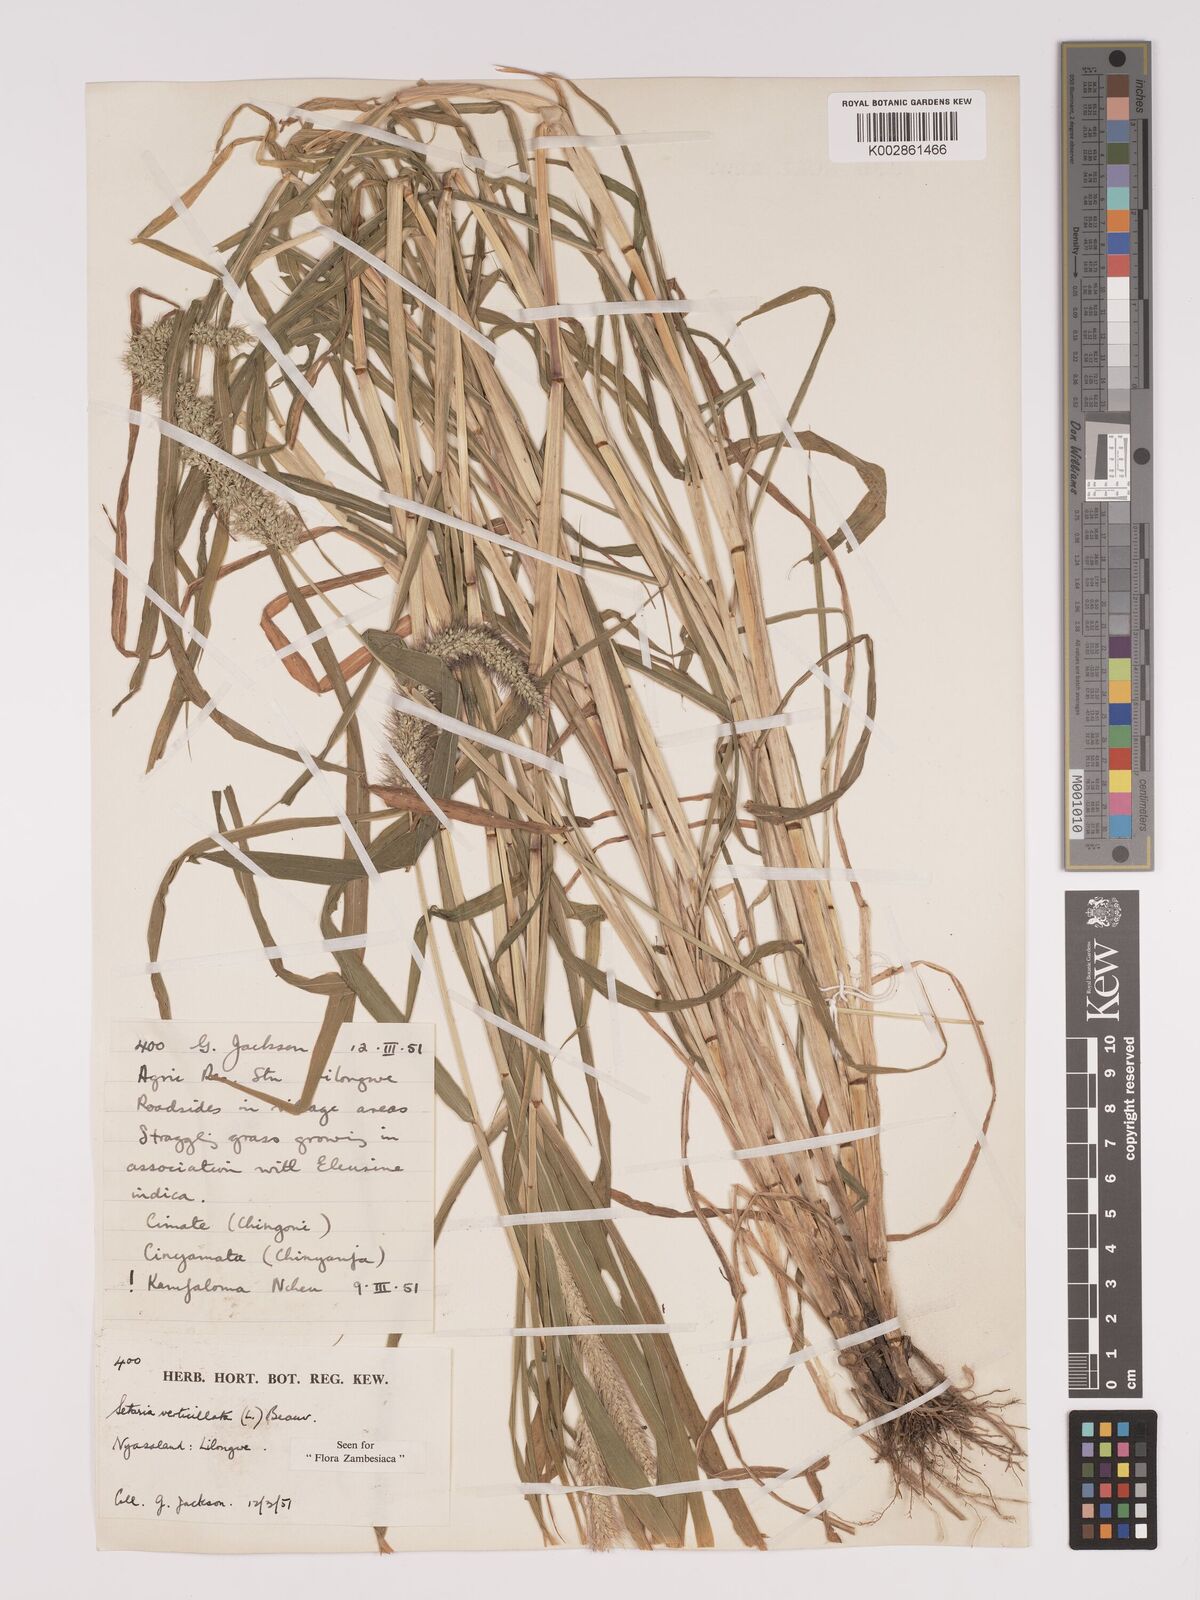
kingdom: Plantae
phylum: Tracheophyta
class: Liliopsida
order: Poales
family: Poaceae
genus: Setaria
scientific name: Setaria verticillata
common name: Hooked bristlegrass
